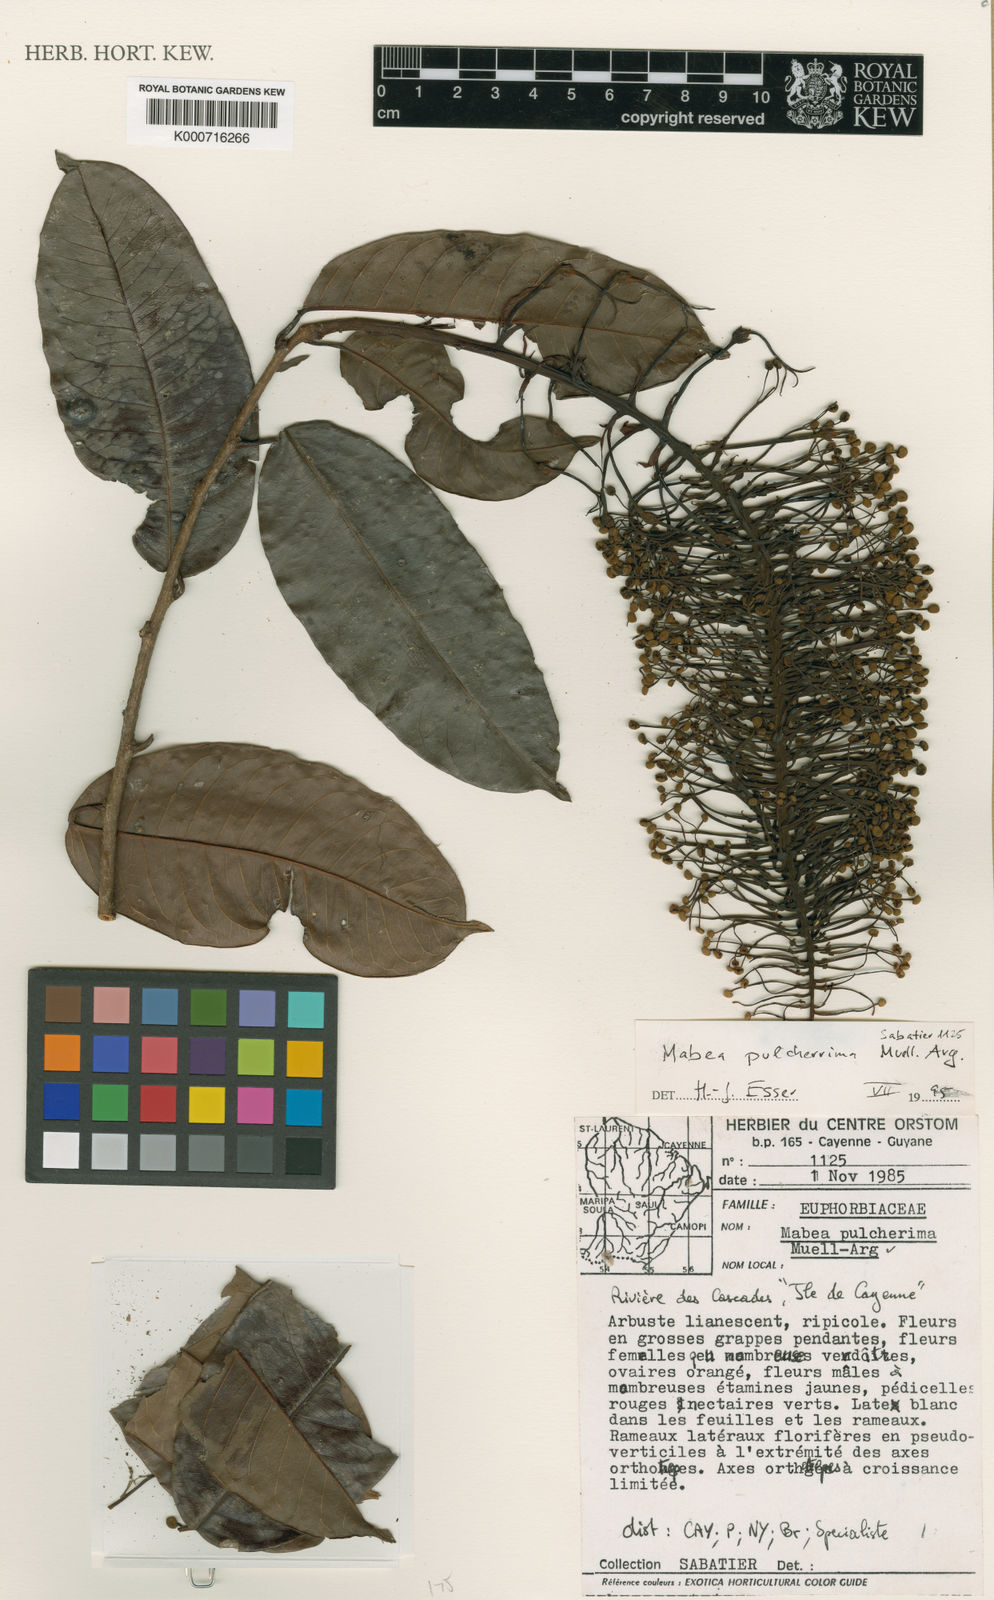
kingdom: Plantae
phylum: Tracheophyta
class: Magnoliopsida
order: Malpighiales
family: Euphorbiaceae
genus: Mabea
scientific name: Mabea
